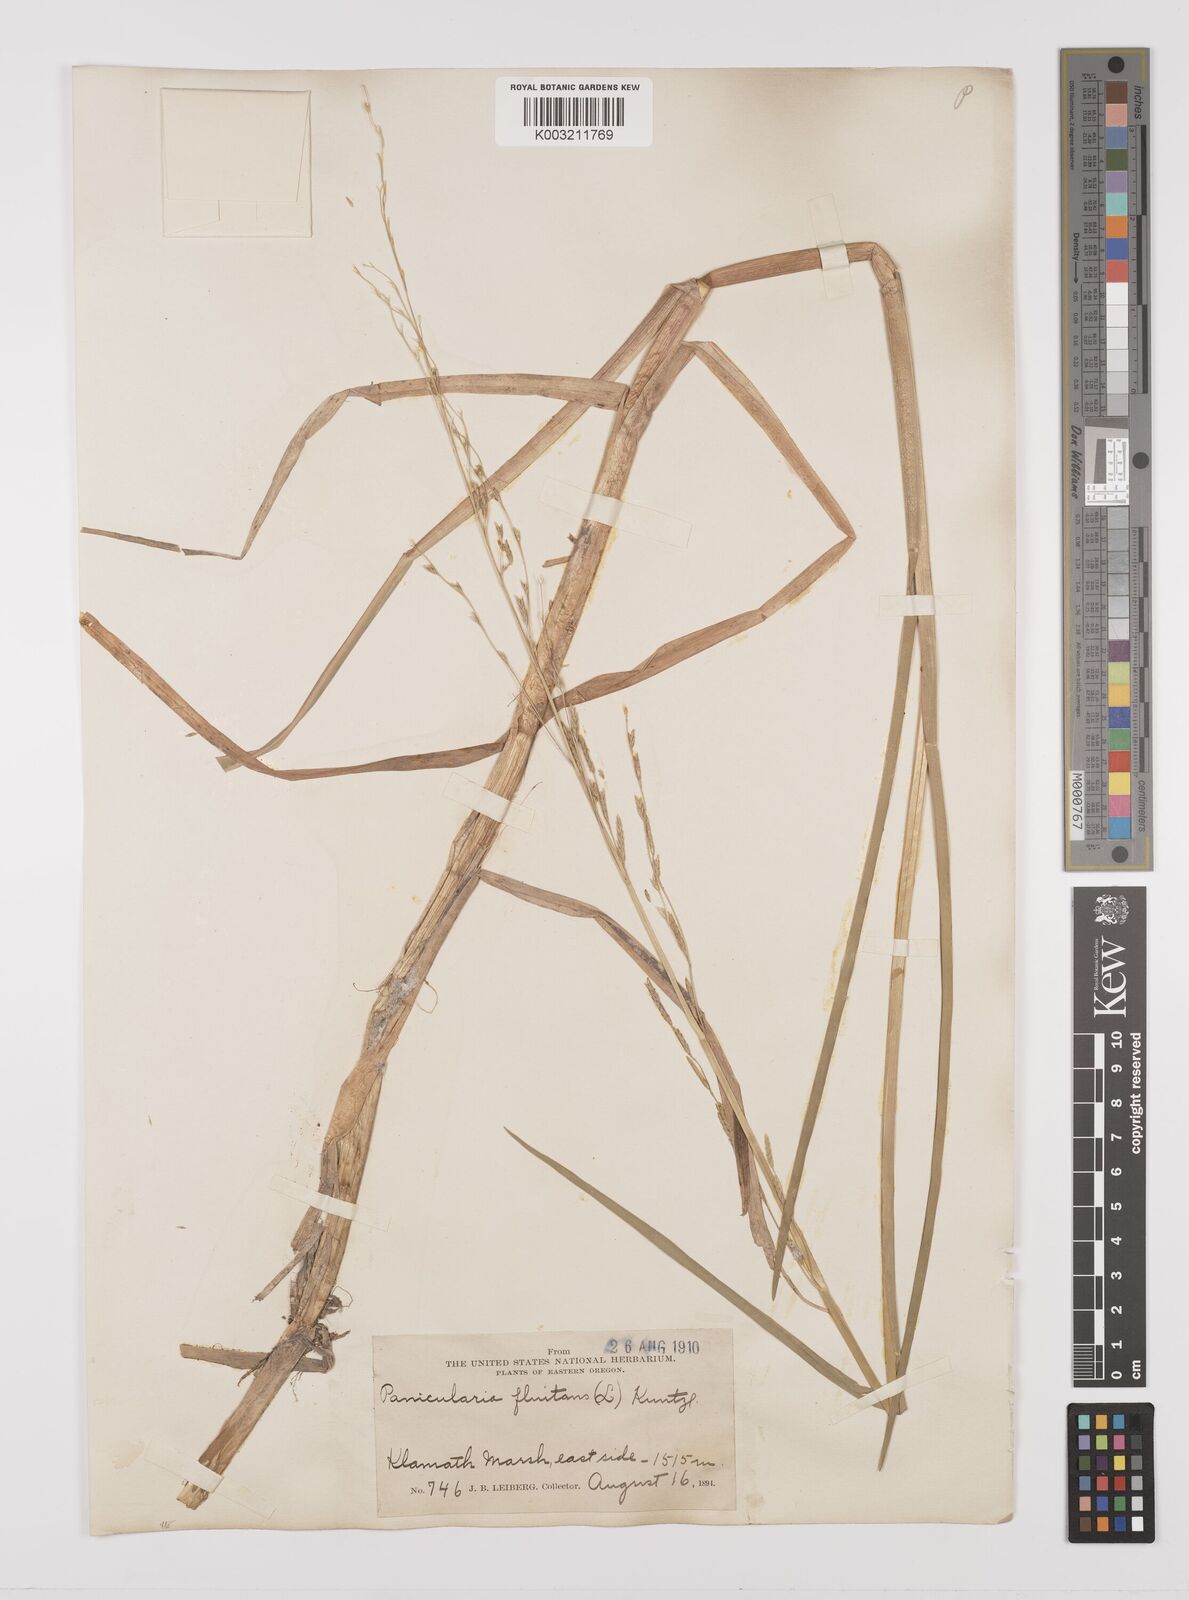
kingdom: Plantae
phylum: Tracheophyta
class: Liliopsida
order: Poales
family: Poaceae
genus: Glyceria
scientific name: Glyceria borealis
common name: Boreal glyceria
